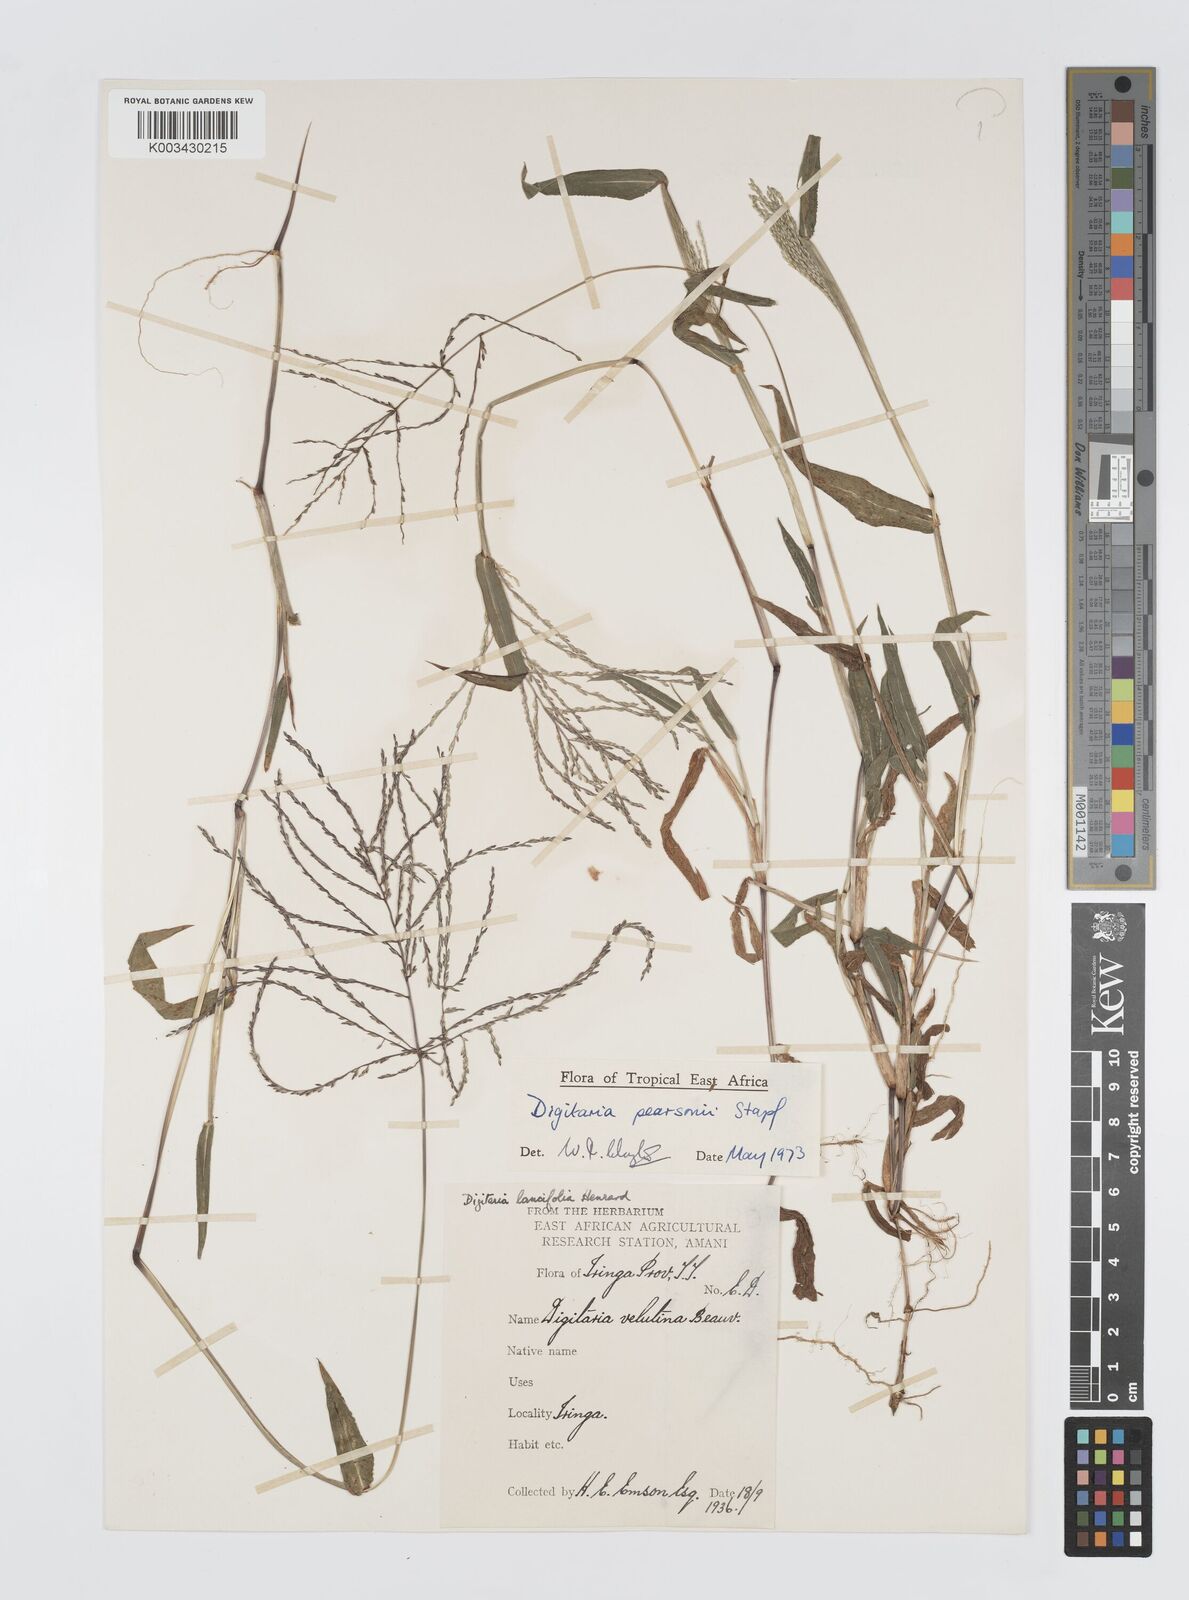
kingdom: Plantae
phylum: Tracheophyta
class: Liliopsida
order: Poales
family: Poaceae
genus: Digitaria
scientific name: Digitaria pearsonii
